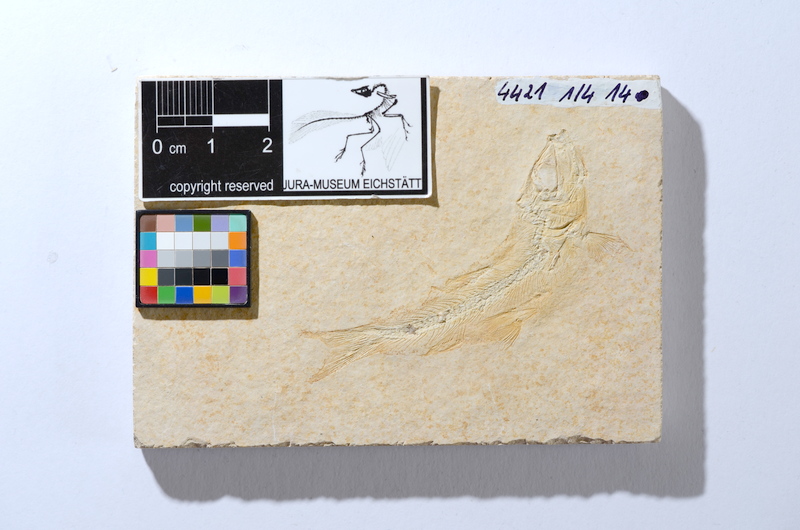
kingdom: Animalia
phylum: Chordata
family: Ascalaboidae
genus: Tharsis
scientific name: Tharsis dubius
